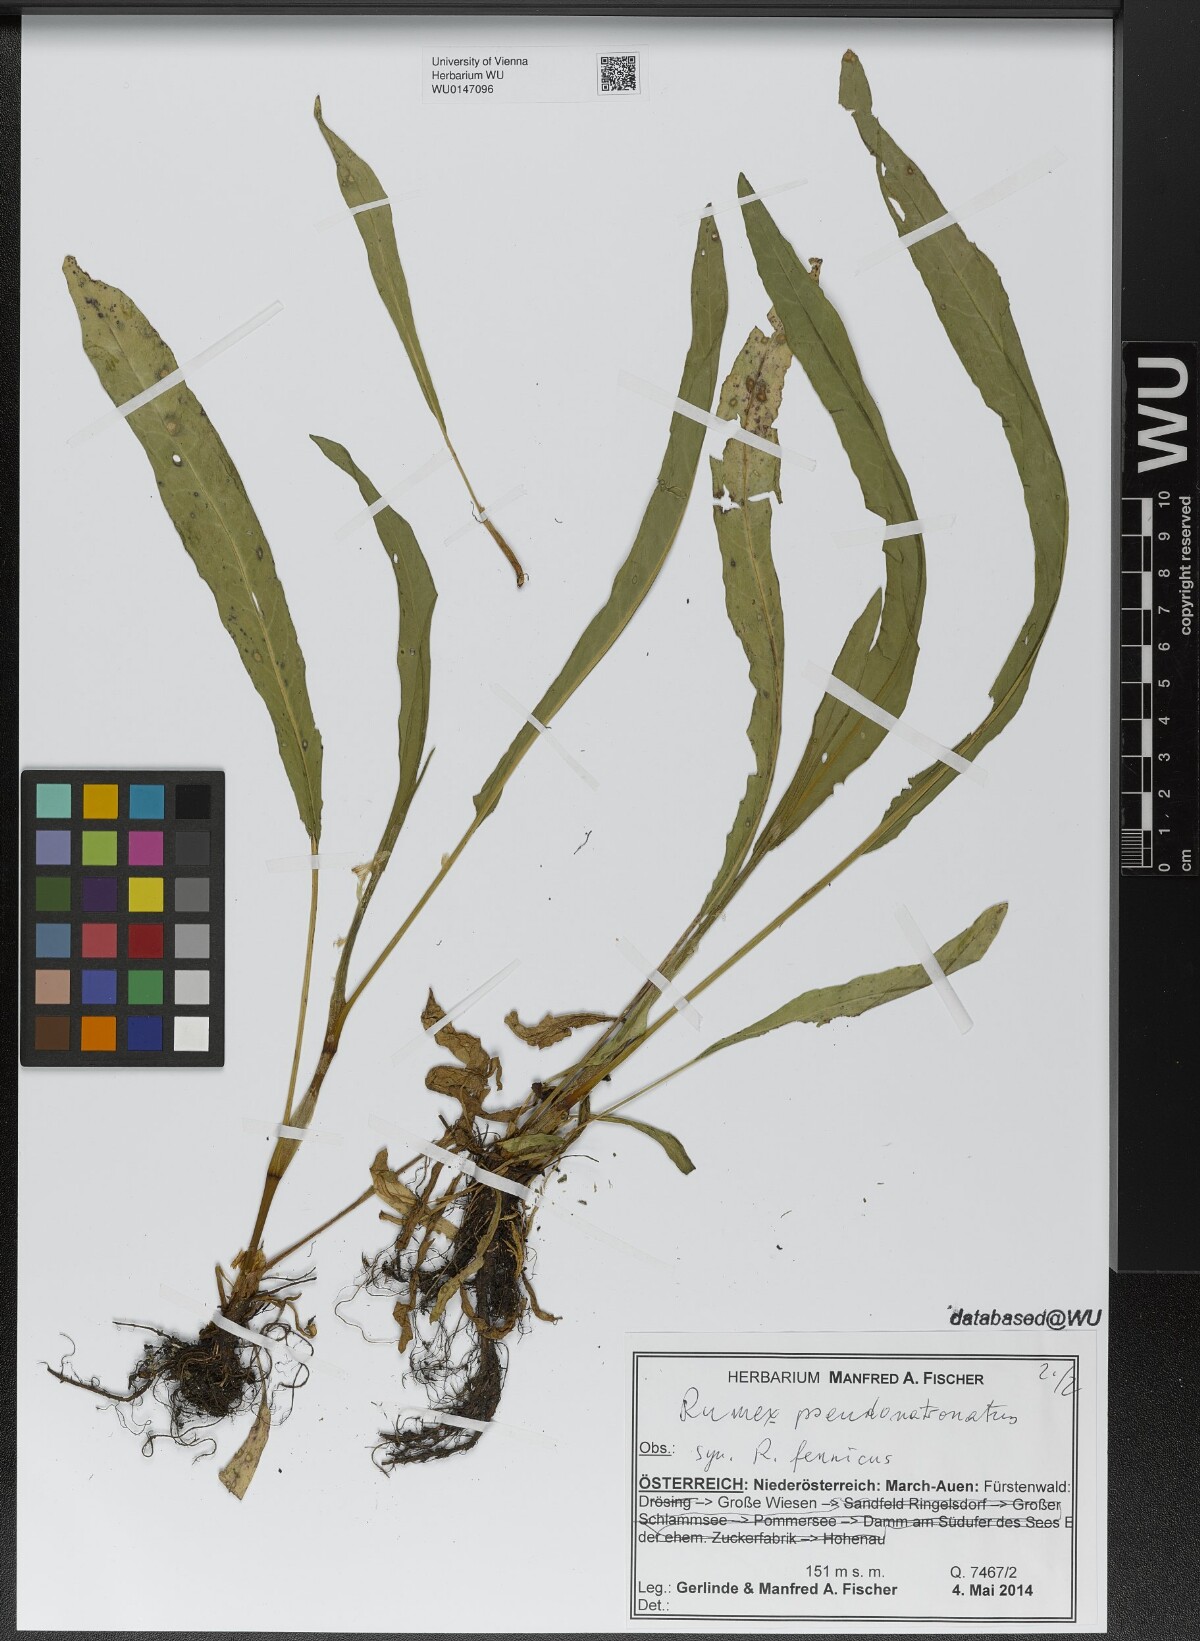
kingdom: Plantae
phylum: Tracheophyta
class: Magnoliopsida
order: Caryophyllales
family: Polygonaceae
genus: Rumex
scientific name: Rumex pseudonatronatus
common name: Field dock
